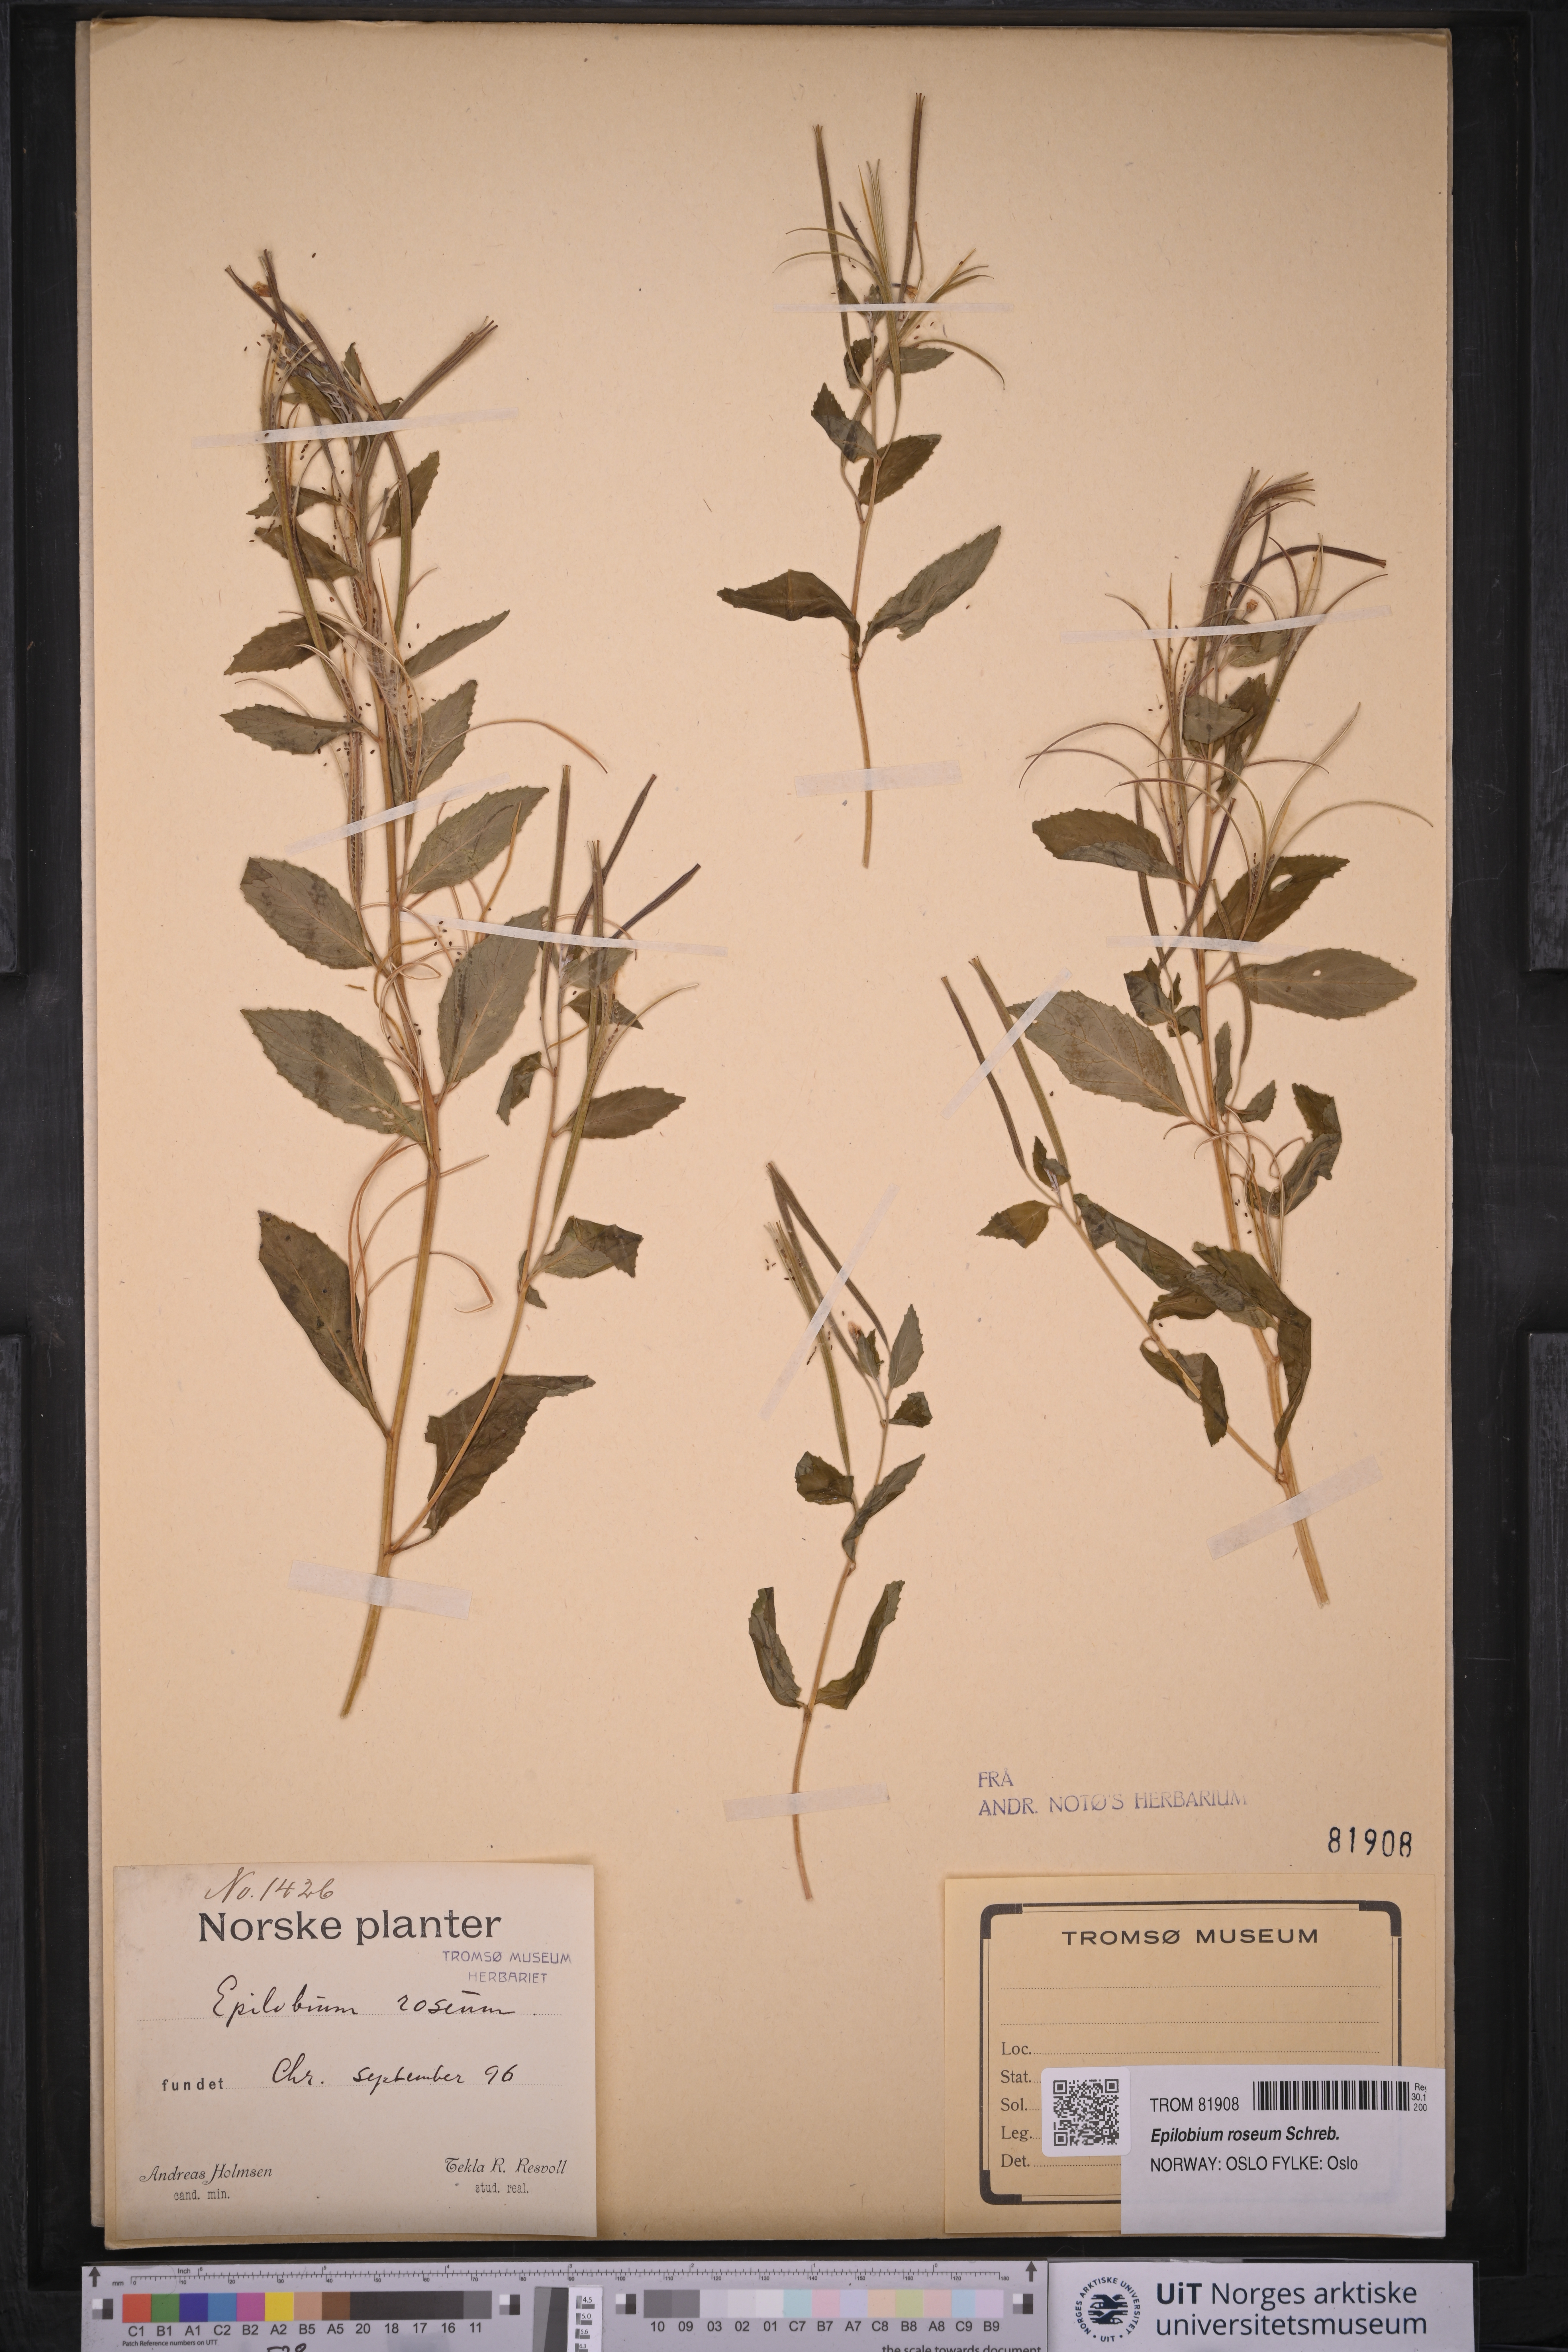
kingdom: Plantae
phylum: Tracheophyta
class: Magnoliopsida
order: Myrtales
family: Onagraceae
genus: Epilobium
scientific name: Epilobium roseum
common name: Pale willowherb
